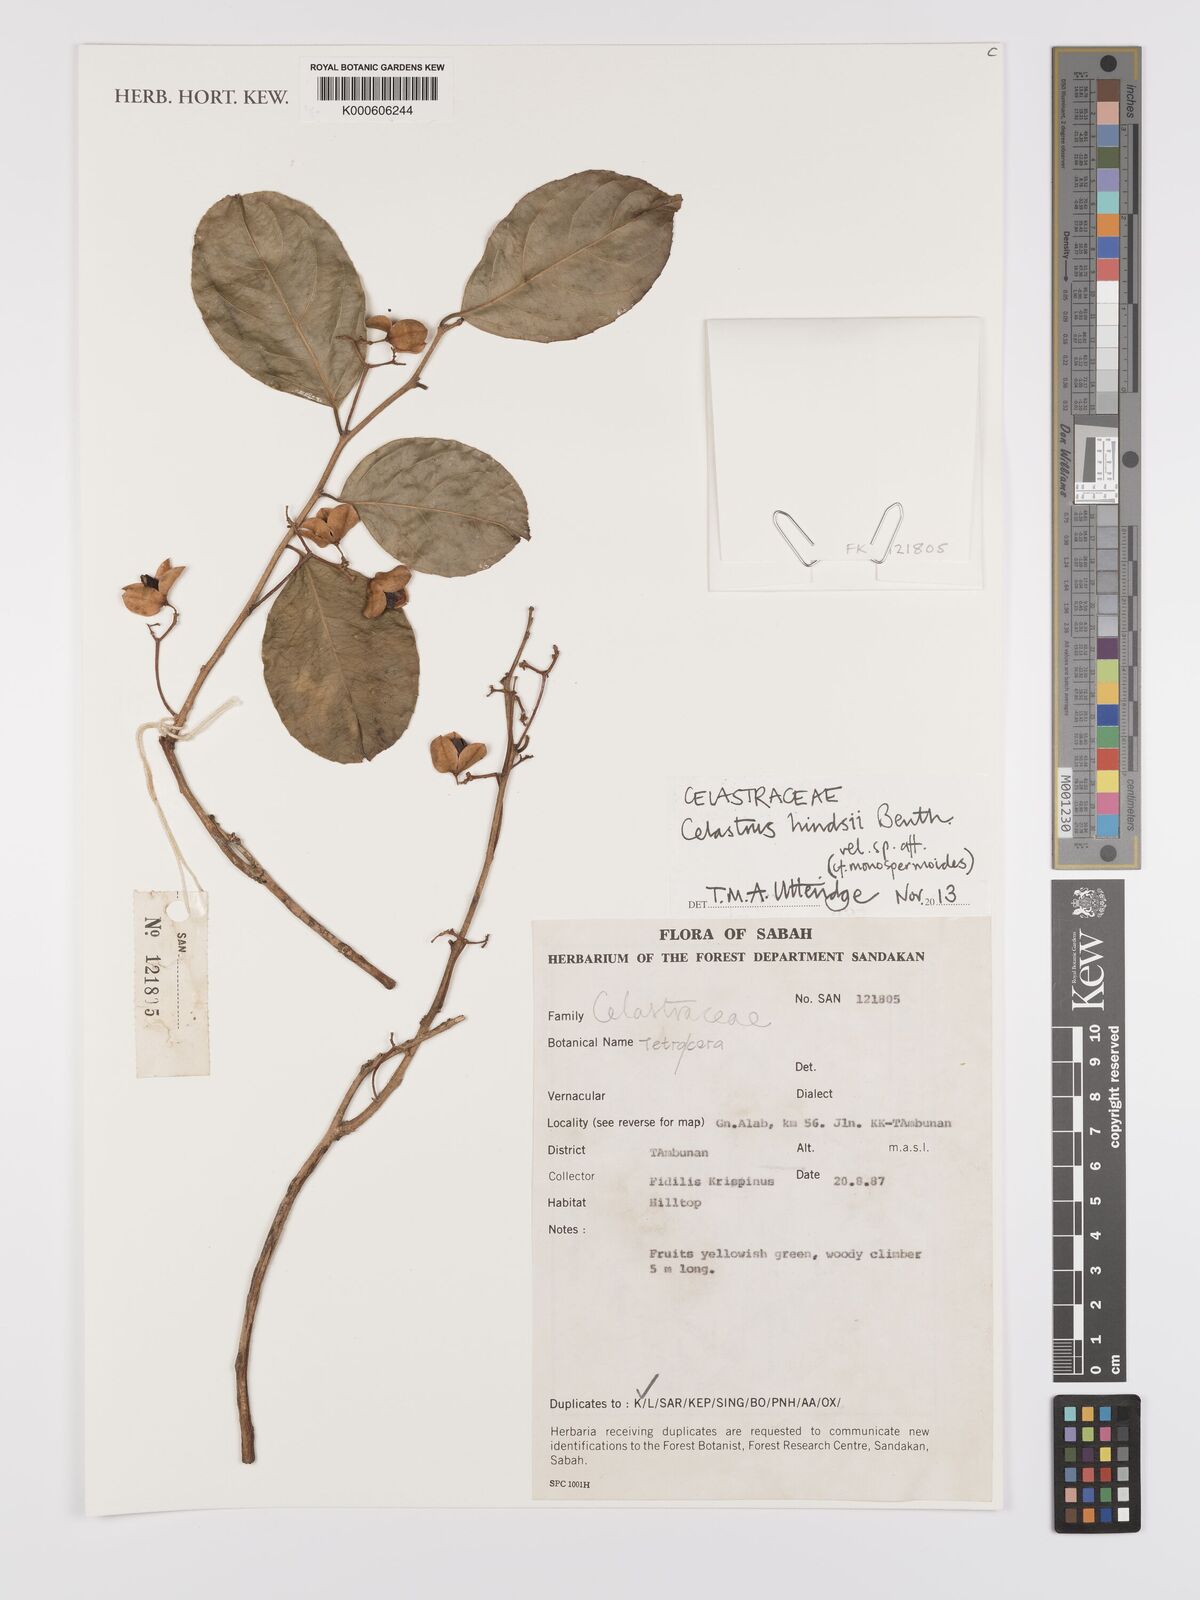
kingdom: Plantae
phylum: Tracheophyta
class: Magnoliopsida
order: Celastrales
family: Celastraceae
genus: Celastrus
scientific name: Celastrus hindsii
